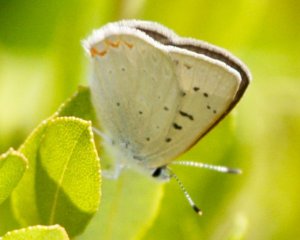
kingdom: Animalia
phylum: Arthropoda
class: Insecta
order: Lepidoptera
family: Sesiidae
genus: Sesia
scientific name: Sesia Lycaena epixanthe
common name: Bog Copper
